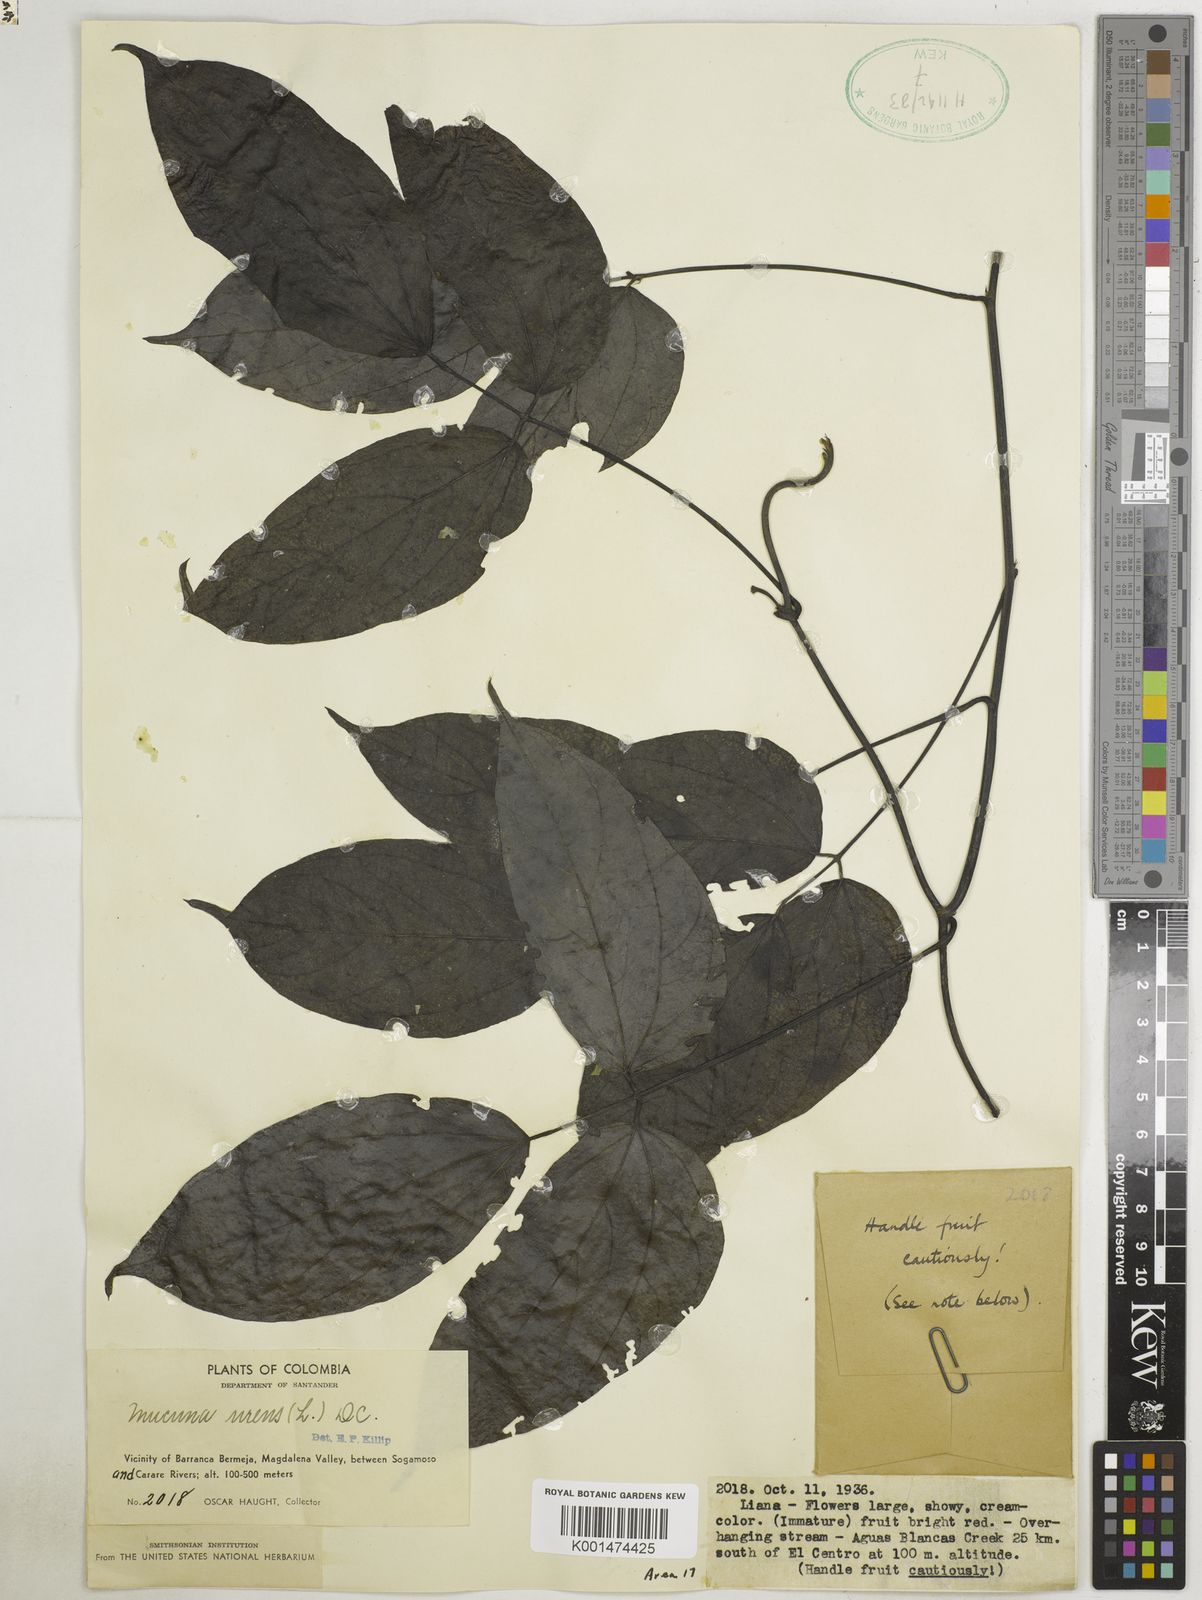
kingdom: Plantae
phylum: Tracheophyta
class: Magnoliopsida
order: Fabales
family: Fabaceae
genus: Mucuna
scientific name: Mucuna urens
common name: Red hamburger bean
